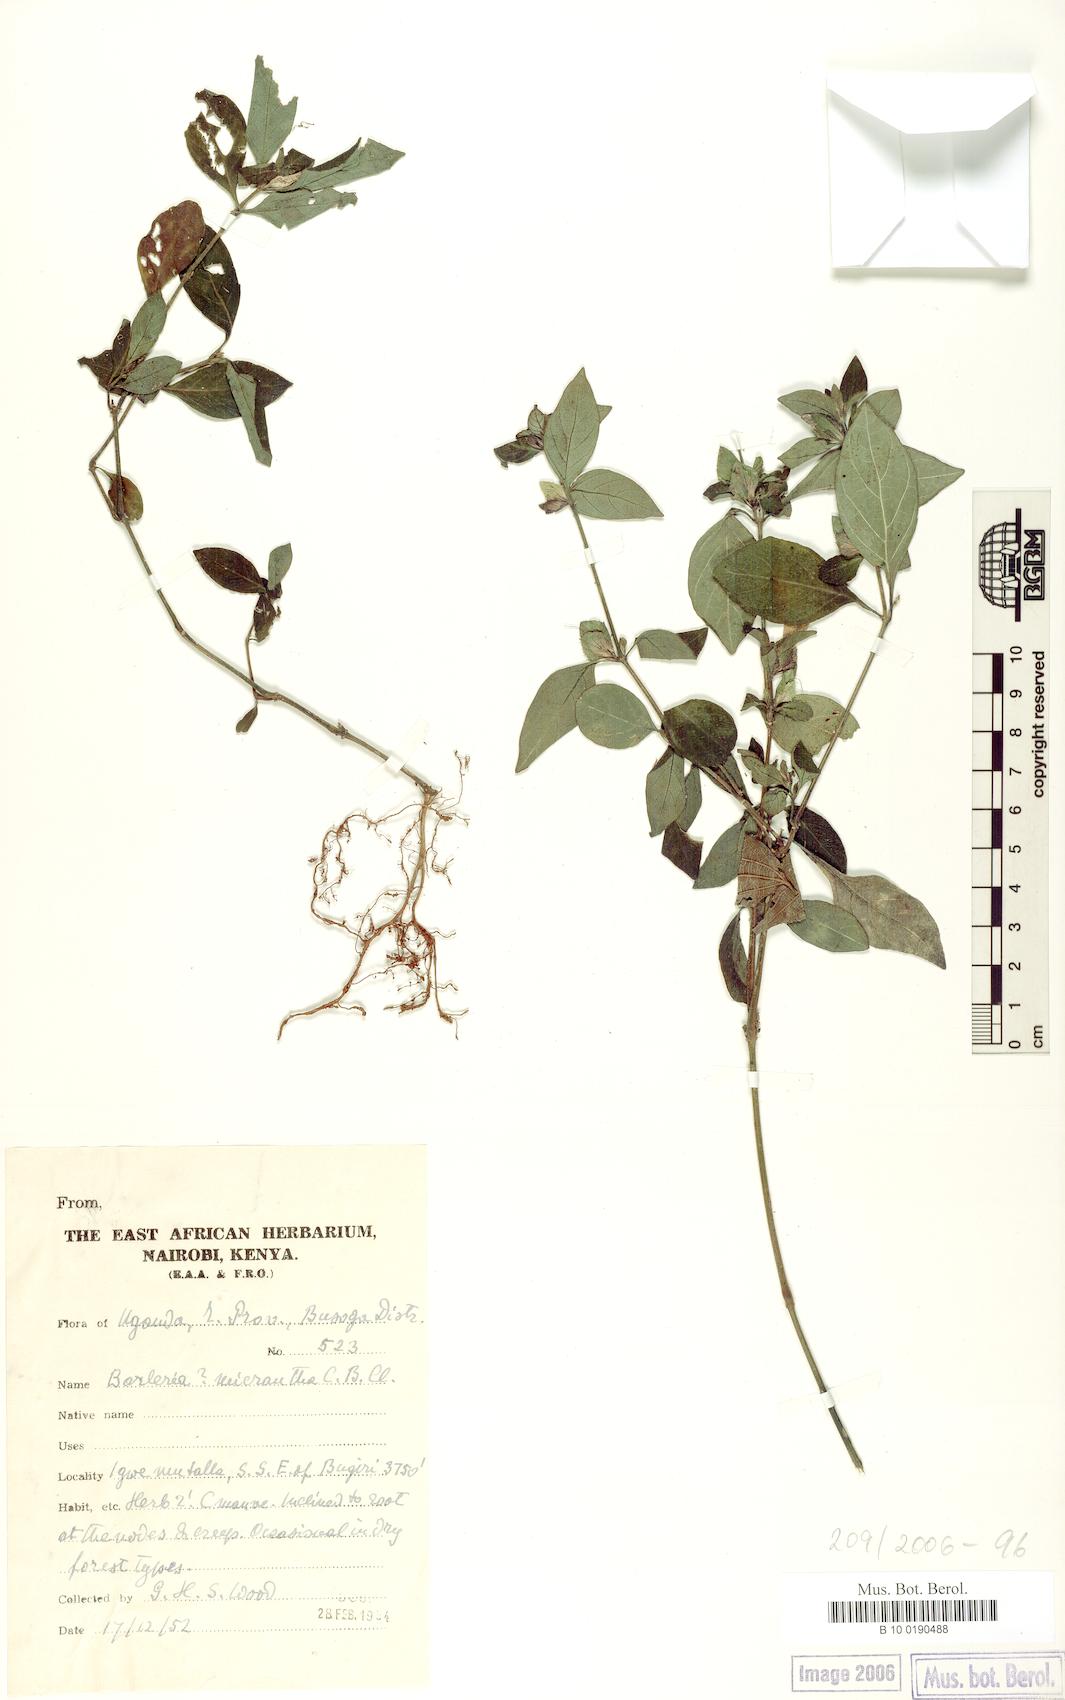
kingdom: Plantae
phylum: Tracheophyta
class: Magnoliopsida
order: Lamiales
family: Acanthaceae
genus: Barleria
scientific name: Barleria ventricosa
